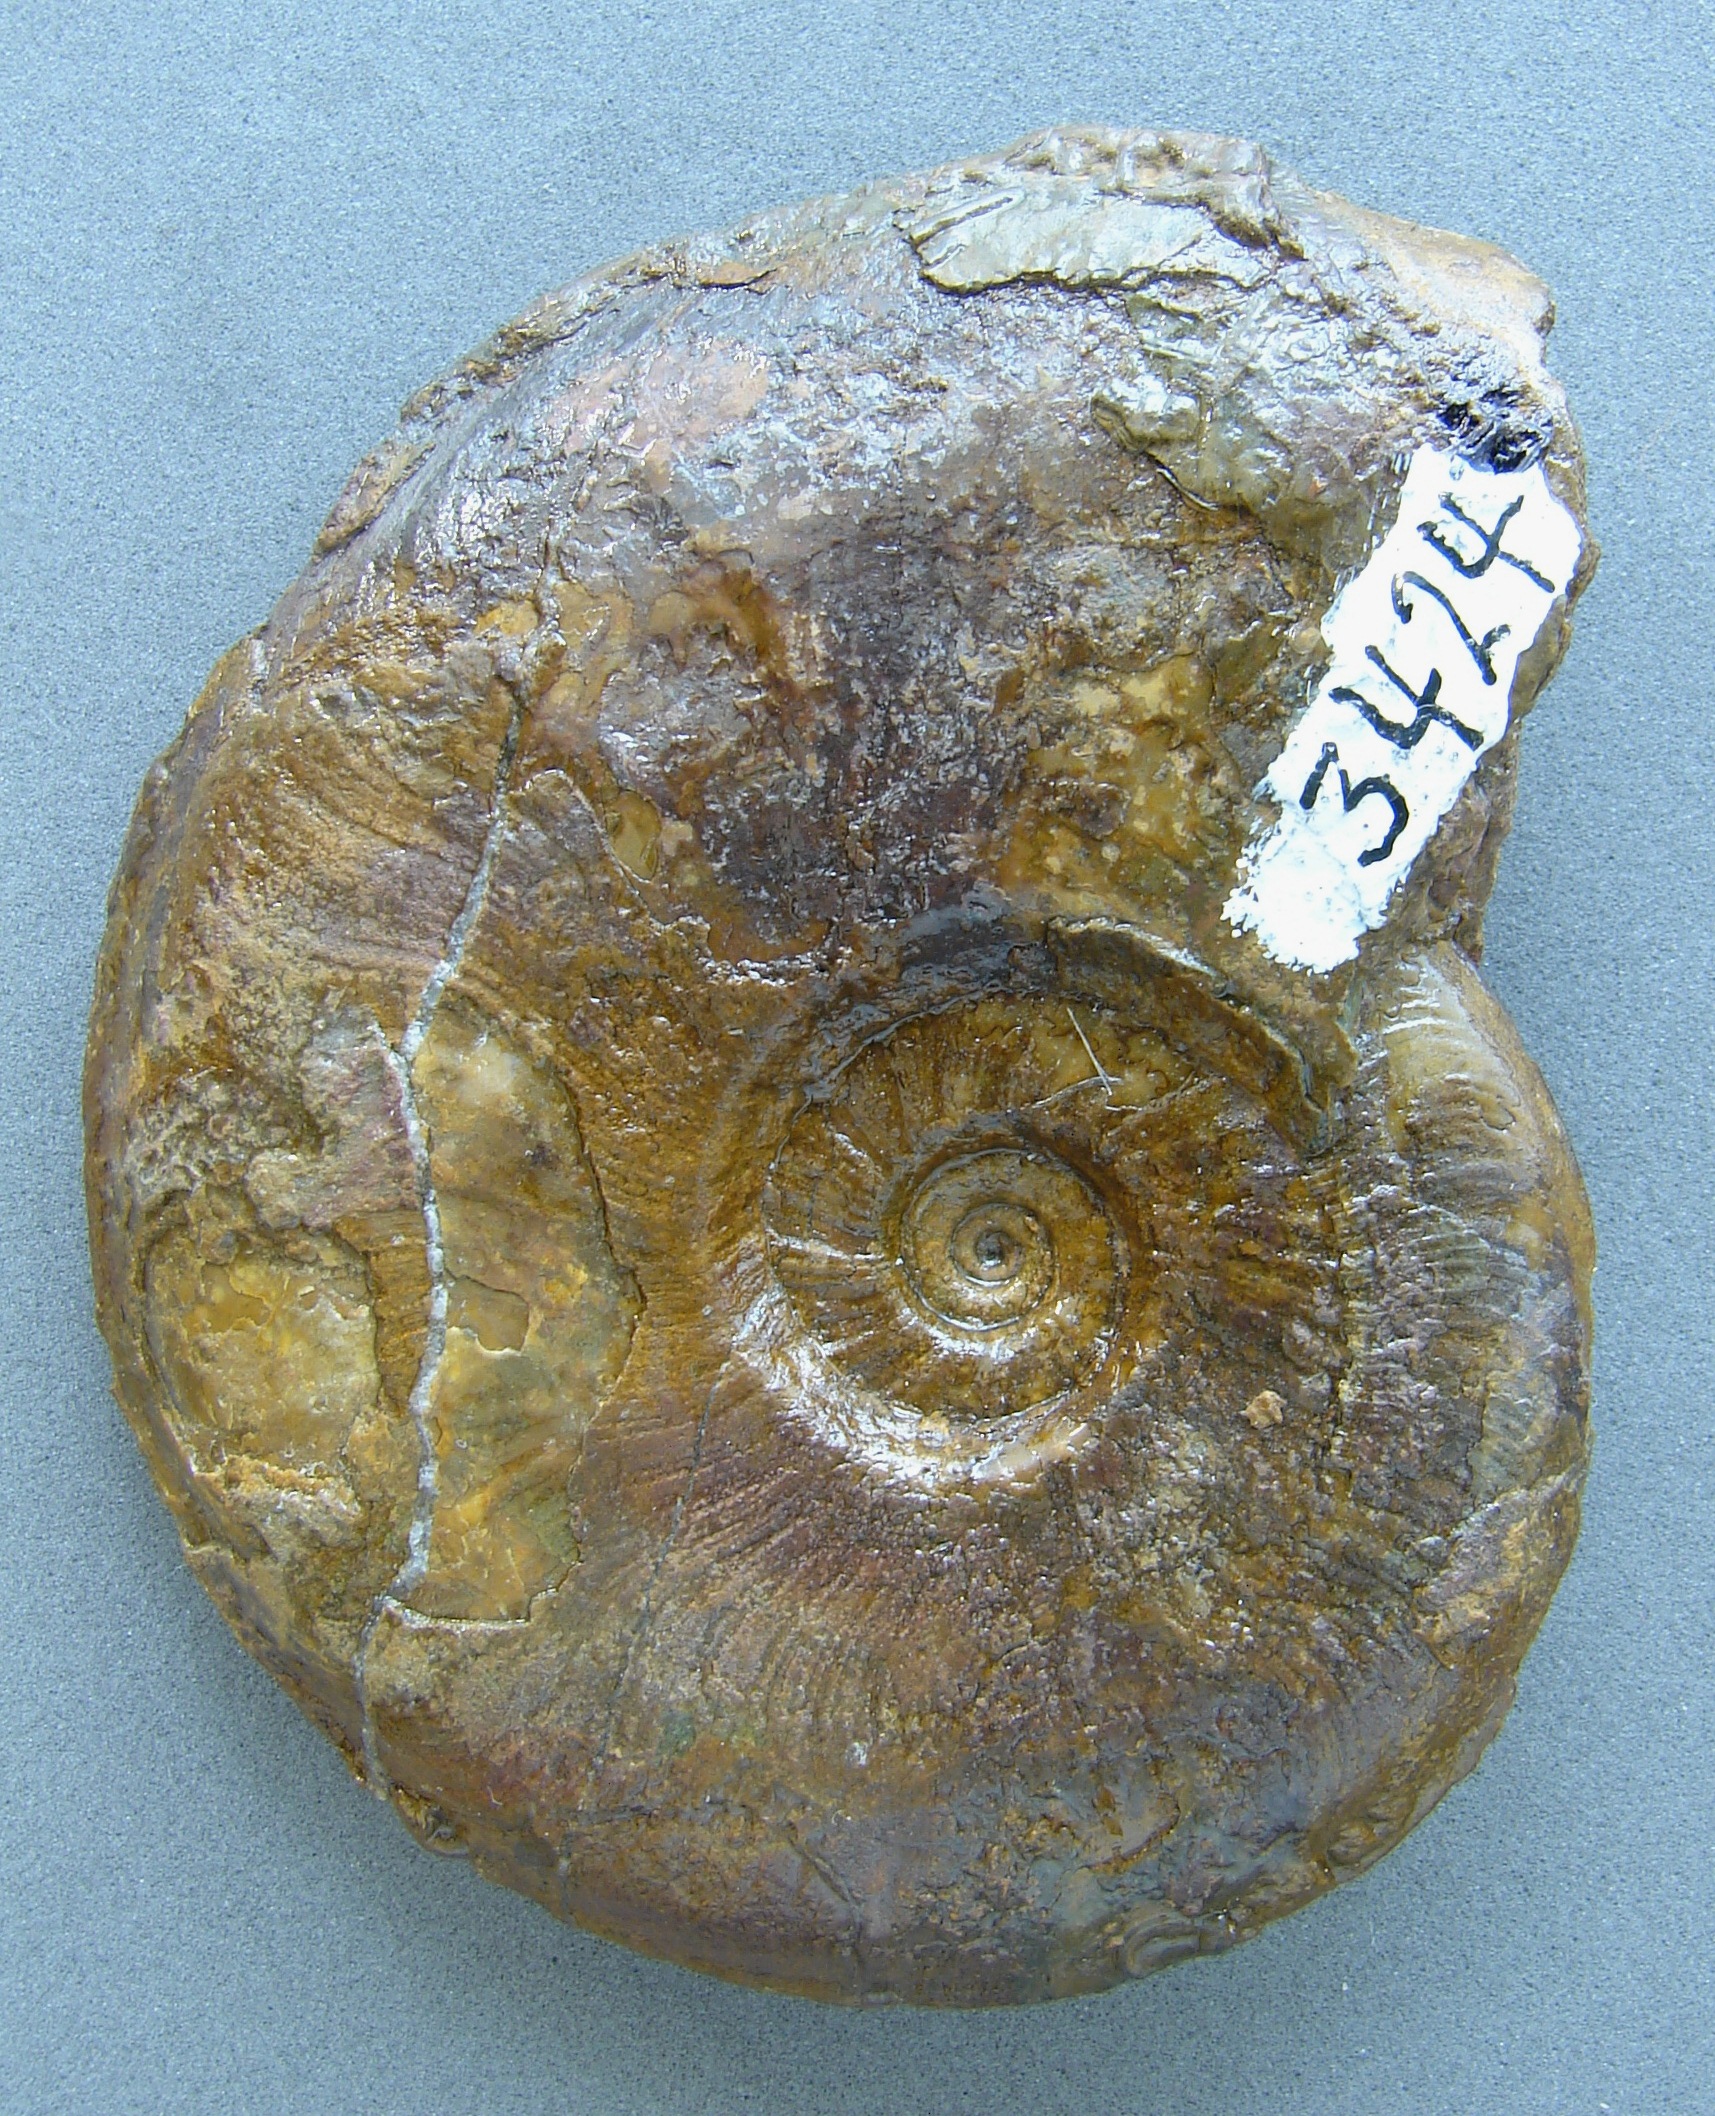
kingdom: Animalia
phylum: Mollusca
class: Cephalopoda
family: Hildoceratidae
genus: Pleydellia
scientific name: Pleydellia buckmani
